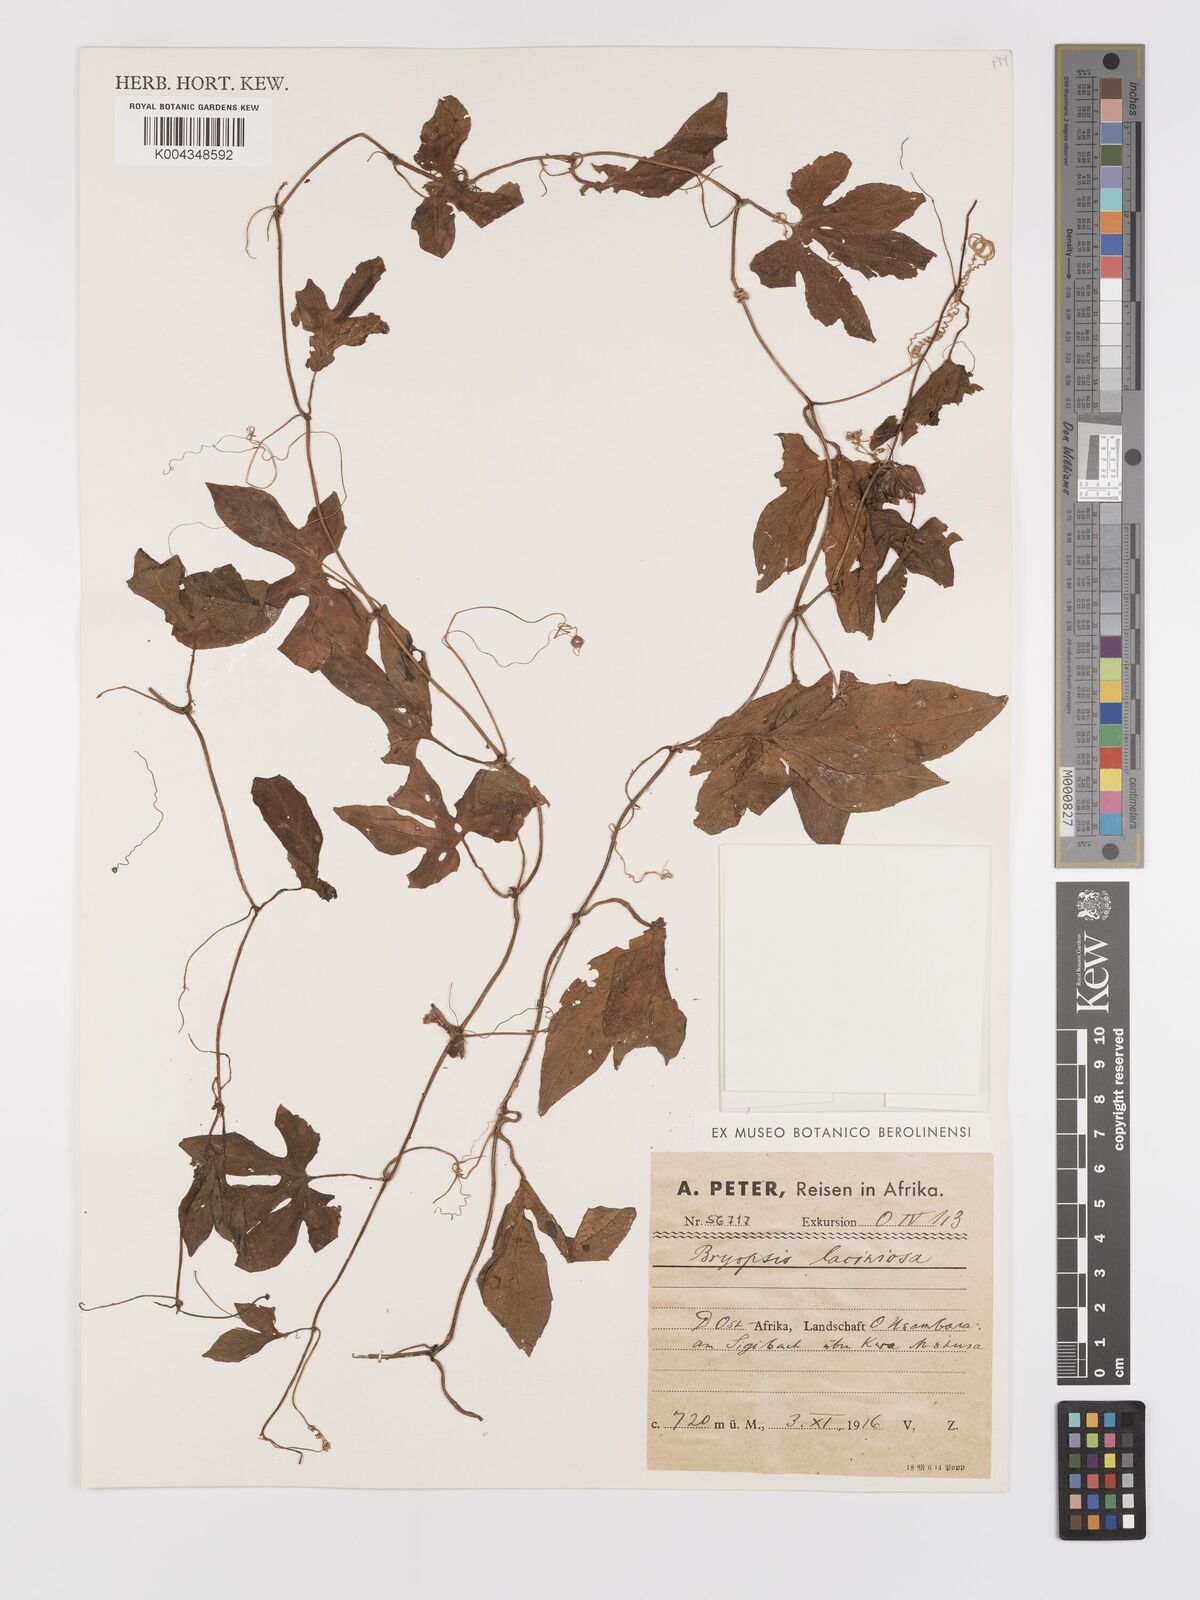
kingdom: Plantae
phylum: Tracheophyta
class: Magnoliopsida
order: Cucurbitales
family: Cucurbitaceae
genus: Diplocyclos
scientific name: Diplocyclos palmatus
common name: Striped-cucumber
